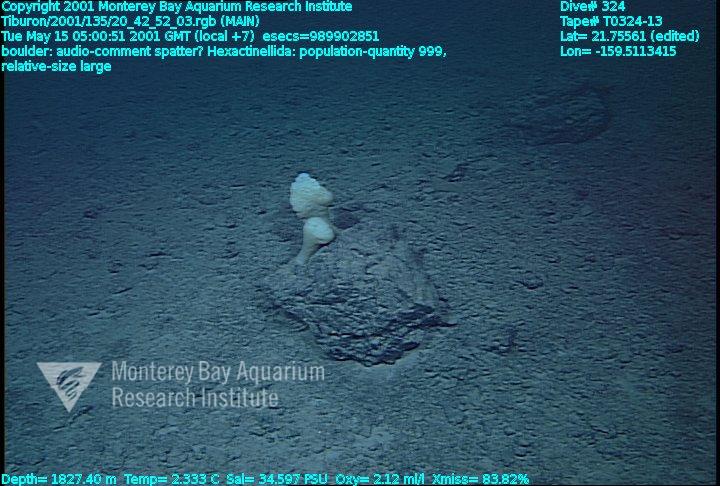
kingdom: Animalia
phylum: Porifera
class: Hexactinellida
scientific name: Hexactinellida
